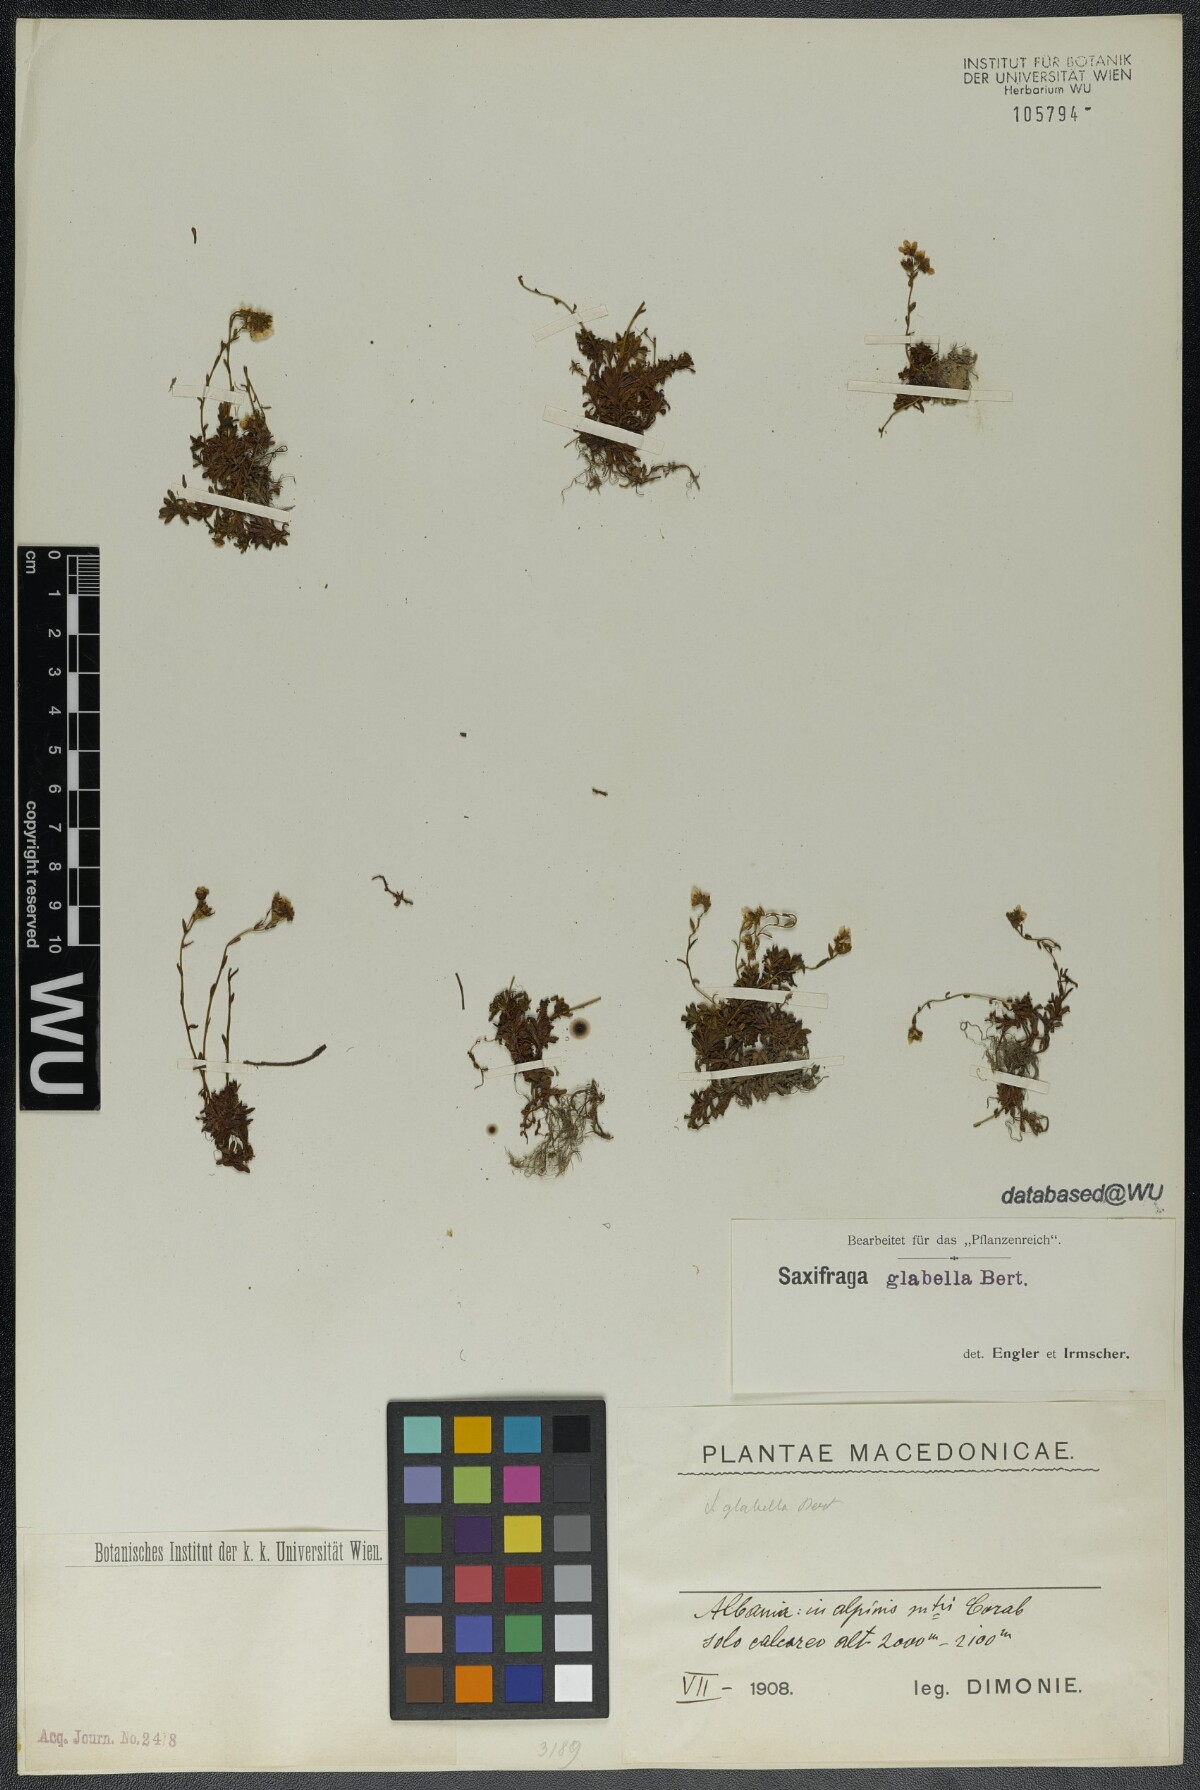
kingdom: Plantae
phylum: Tracheophyta
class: Magnoliopsida
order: Saxifragales
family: Saxifragaceae
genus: Saxifraga
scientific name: Saxifraga glabella
